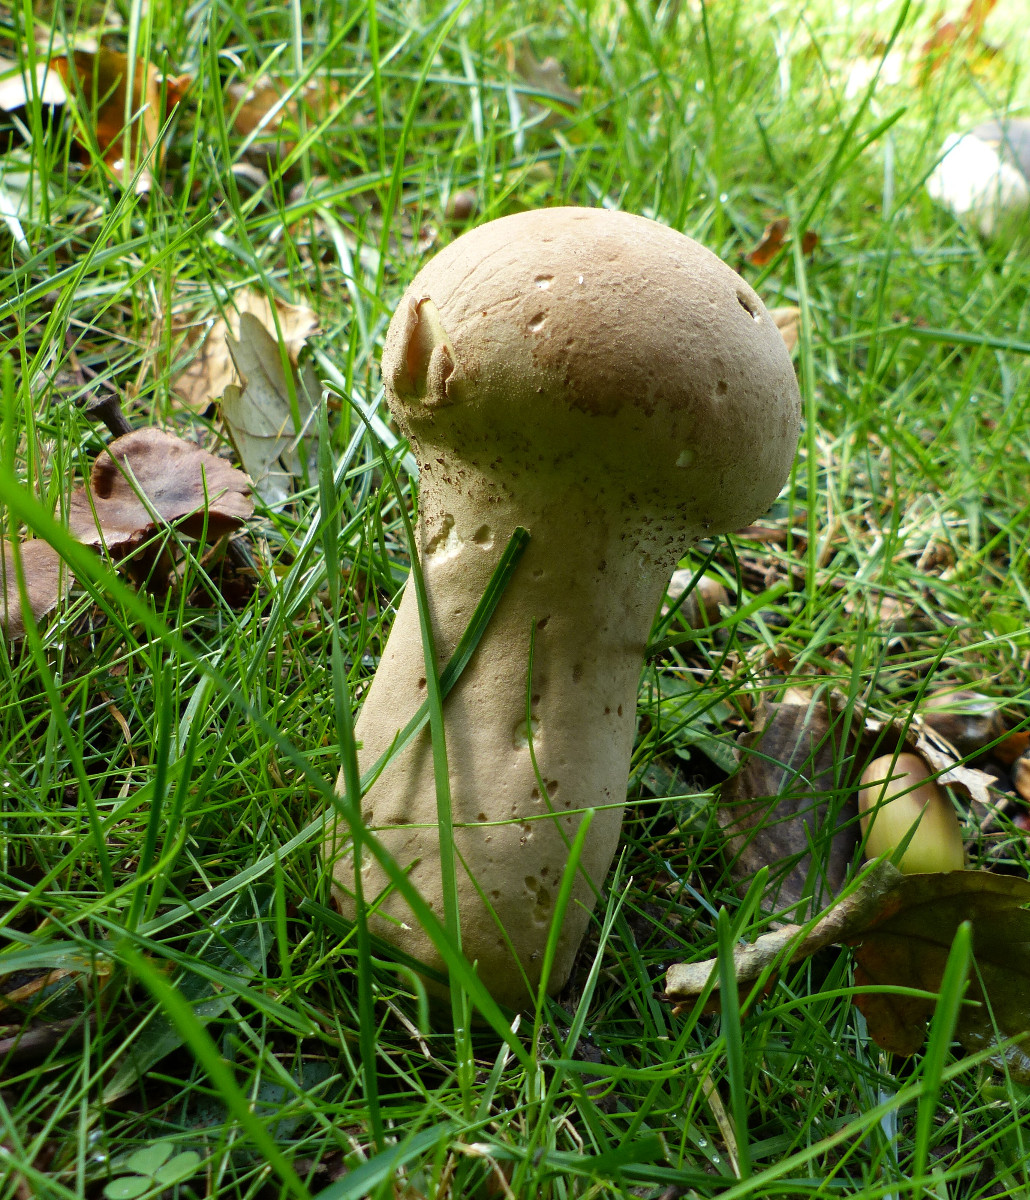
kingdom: Fungi
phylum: Basidiomycota
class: Agaricomycetes
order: Agaricales
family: Lycoperdaceae
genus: Lycoperdon
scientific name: Lycoperdon excipuliforme
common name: højstokket støvbold
